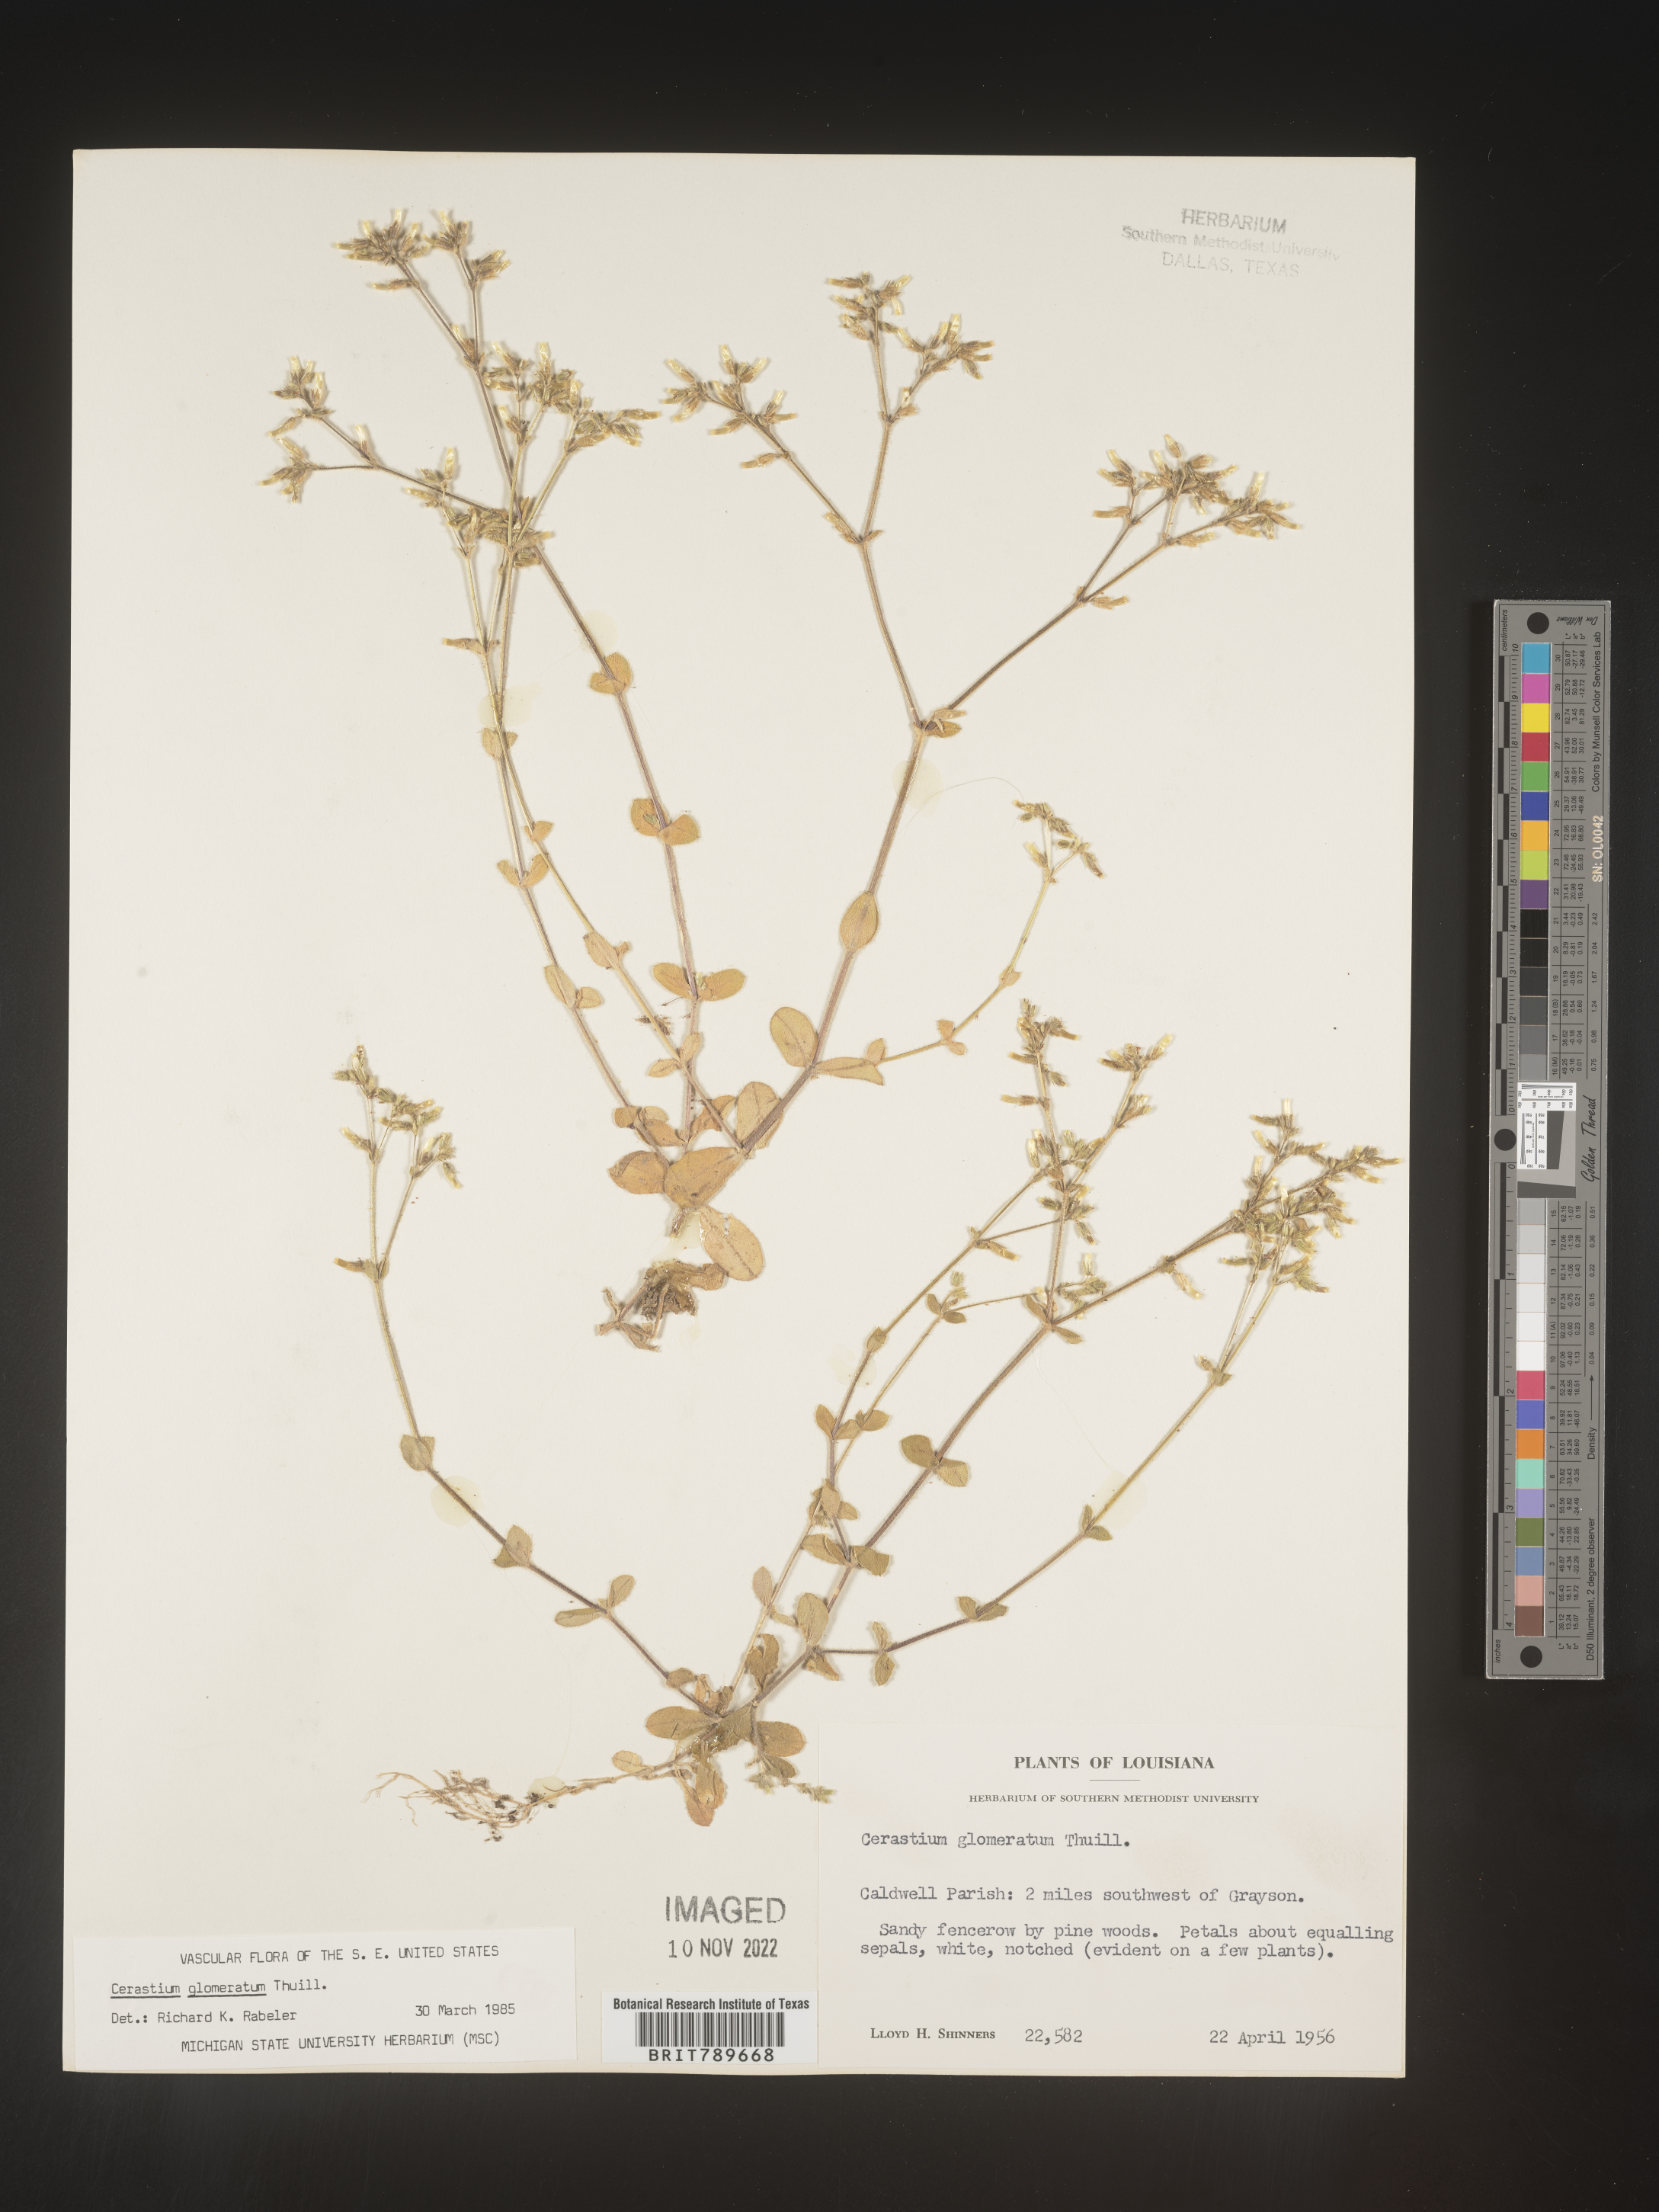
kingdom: Plantae
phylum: Tracheophyta
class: Magnoliopsida
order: Caryophyllales
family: Caryophyllaceae
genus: Cerastium
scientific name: Cerastium glomeratum
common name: Sticky chickweed
